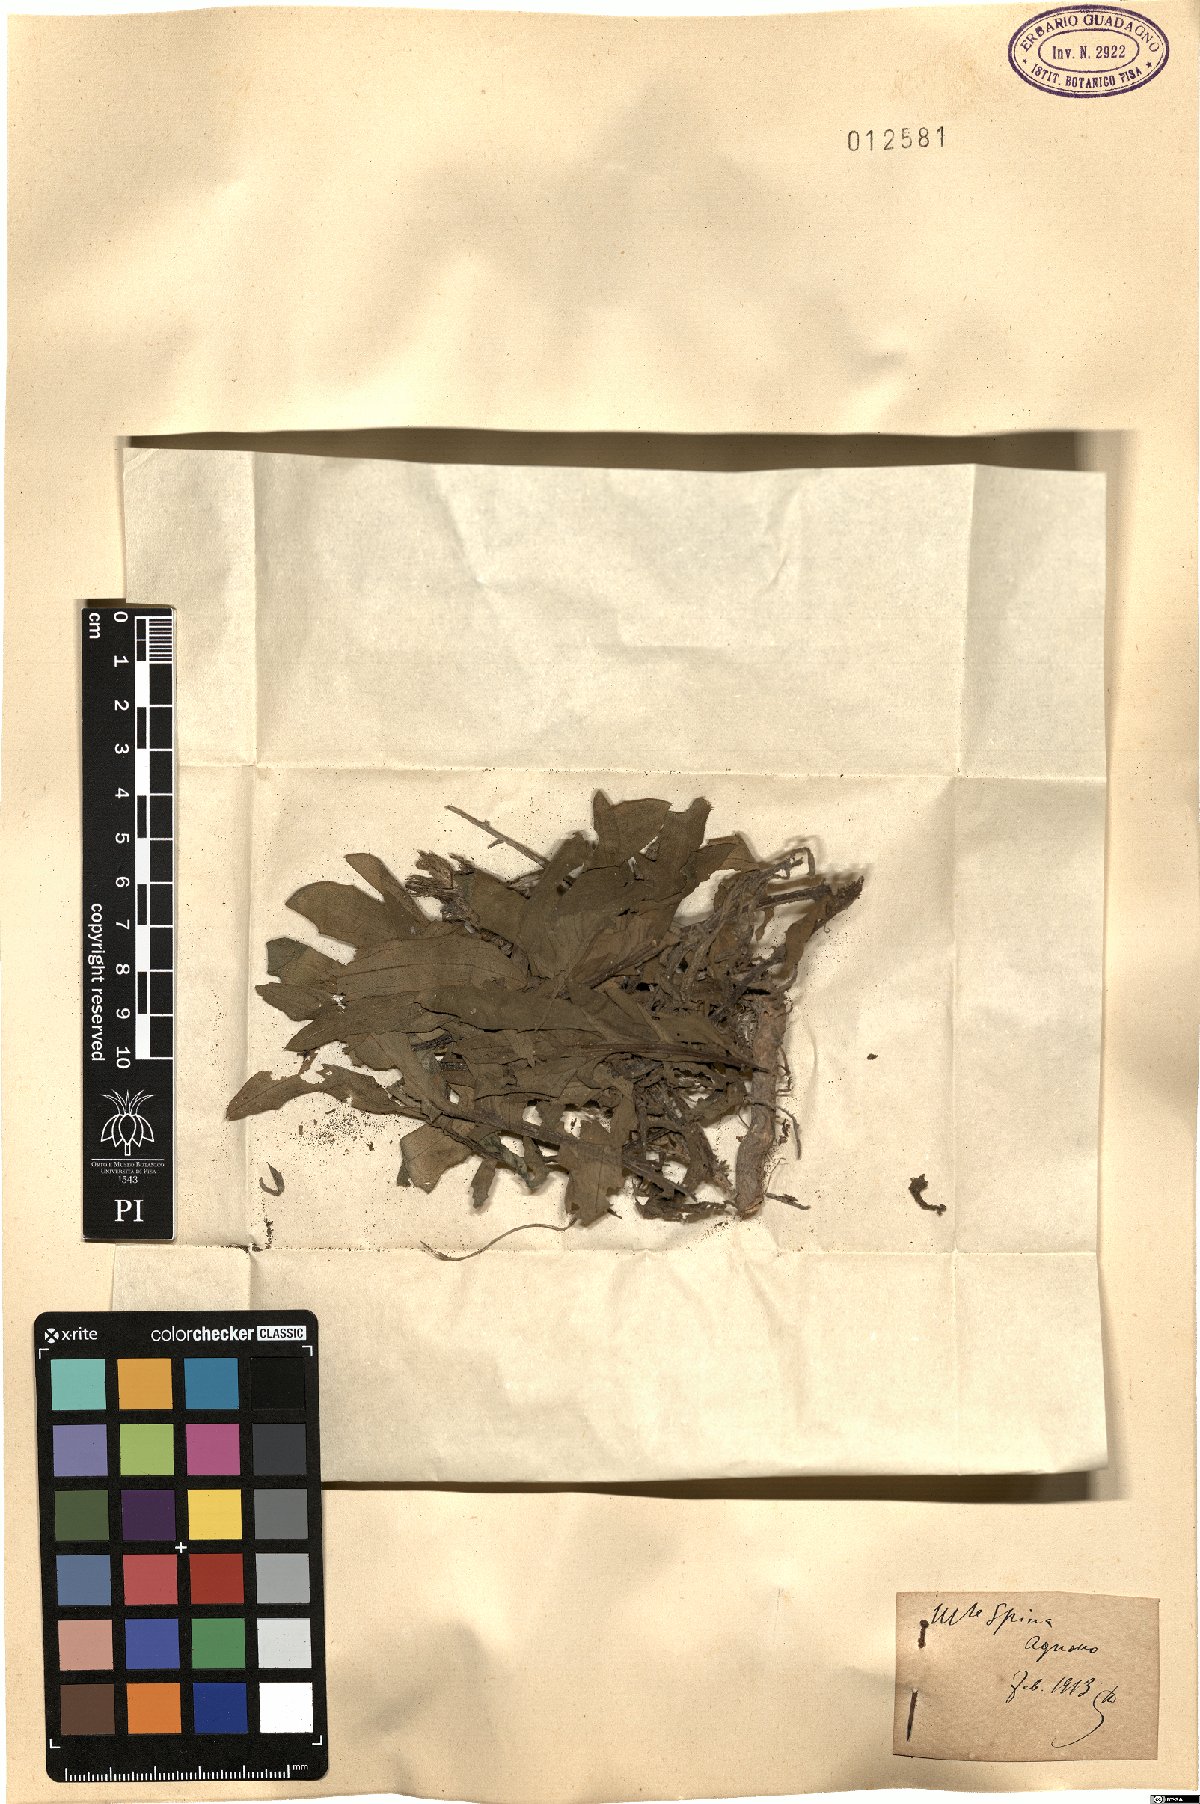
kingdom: Plantae
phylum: Tracheophyta
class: Magnoliopsida
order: Asterales
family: Asteraceae
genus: Centaurea
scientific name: Centaurea
